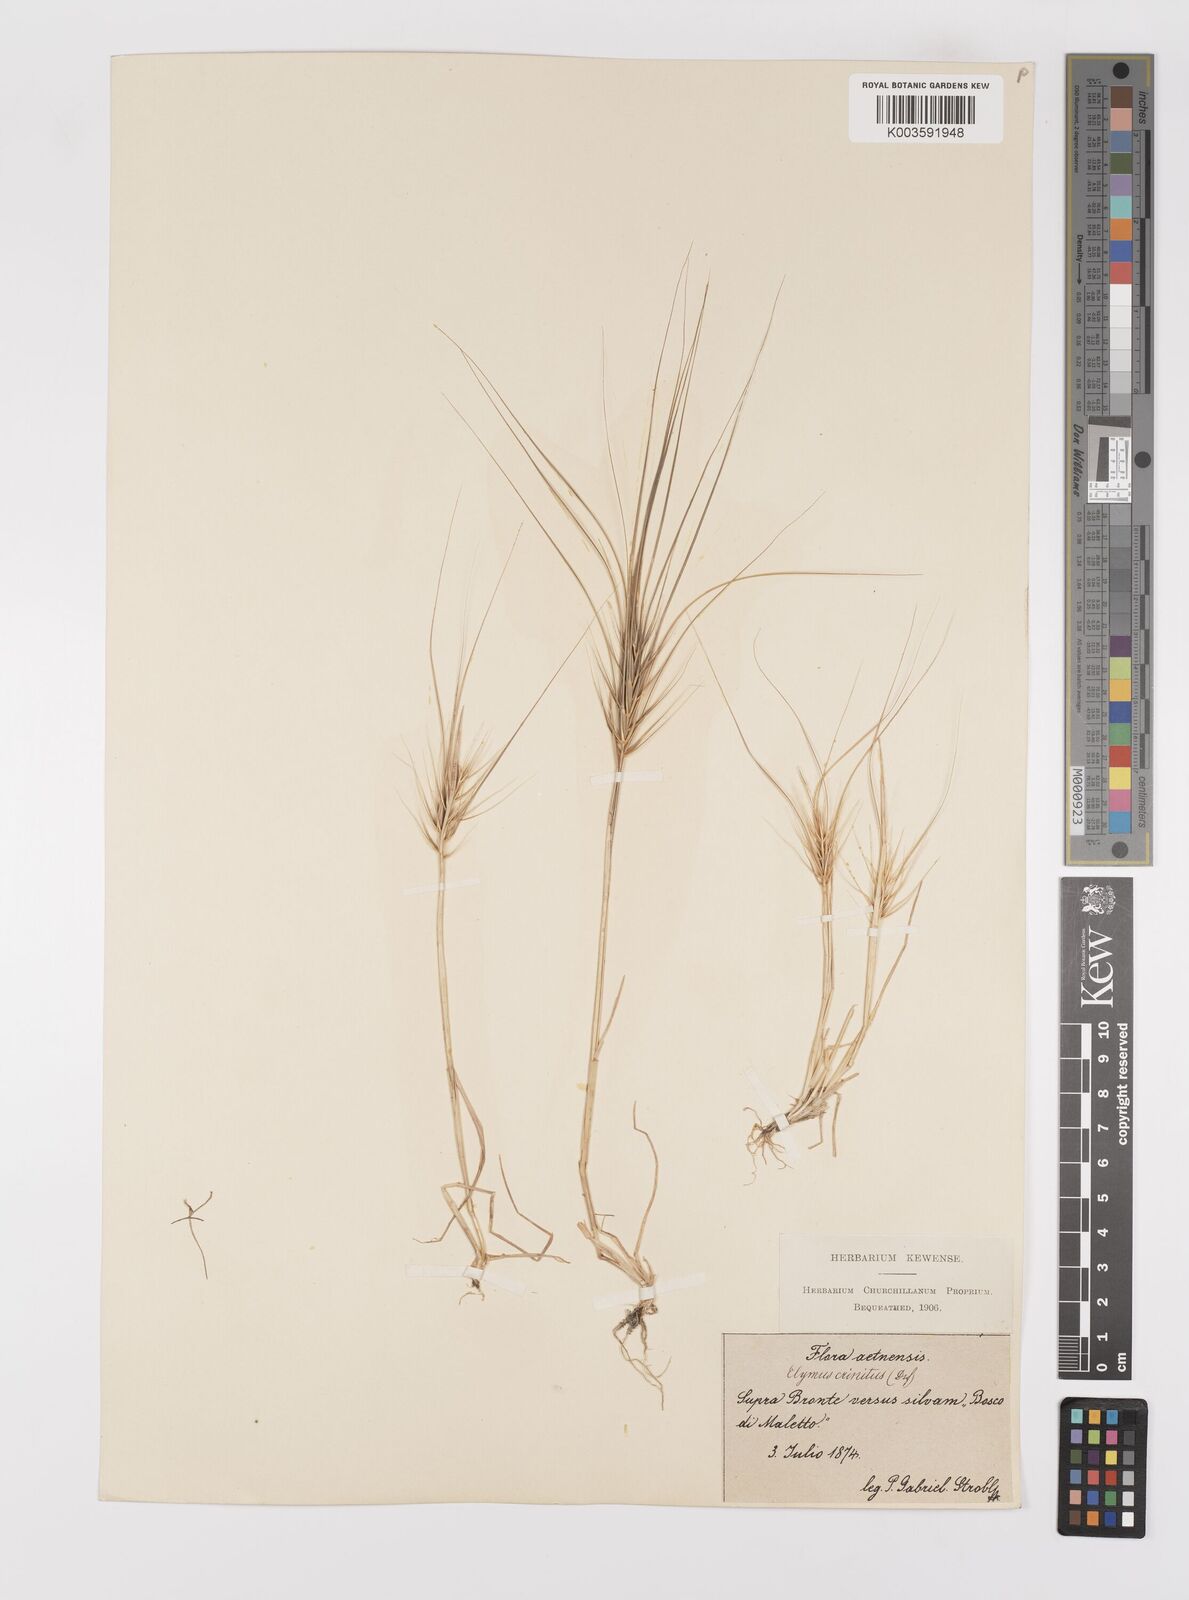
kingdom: Plantae
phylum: Tracheophyta
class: Liliopsida
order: Poales
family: Poaceae
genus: Taeniatherum
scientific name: Taeniatherum caput-medusae
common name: Medusahead
